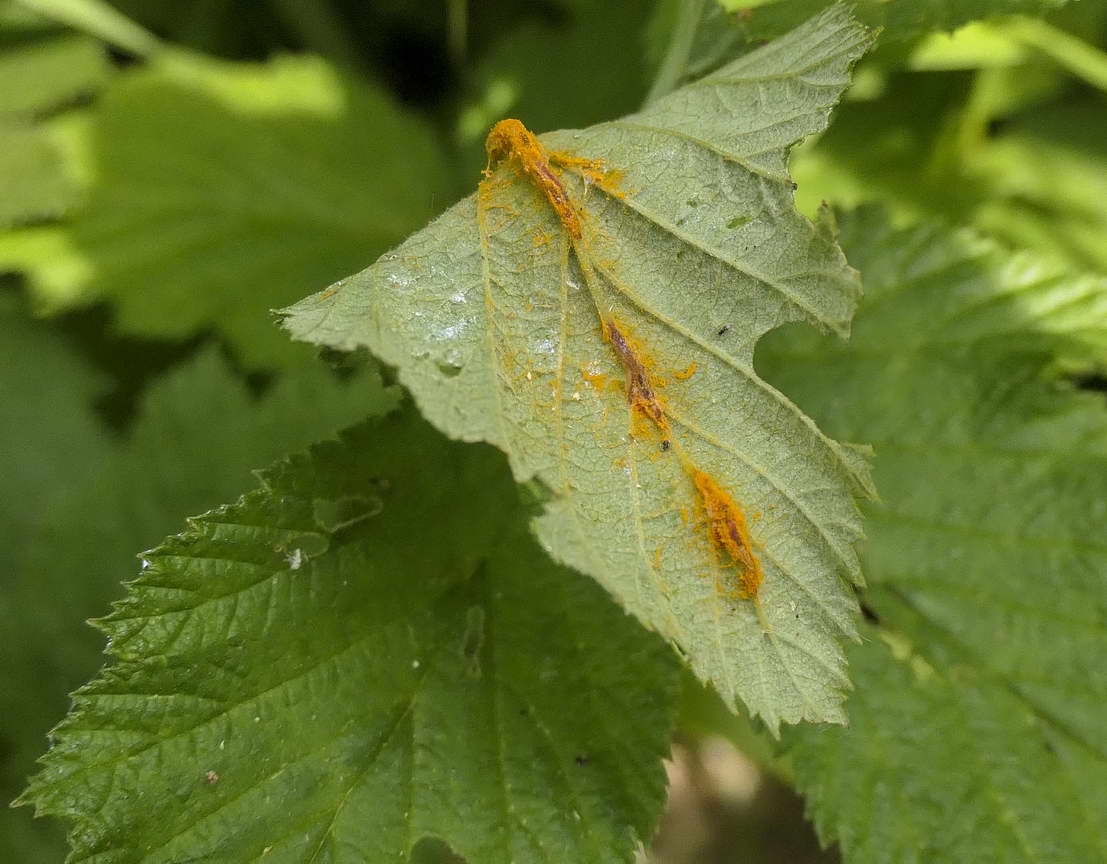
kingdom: Fungi
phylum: Basidiomycota
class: Pucciniomycetes
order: Pucciniales
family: Raveneliaceae
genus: Triphragmium
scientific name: Triphragmium ulmariae
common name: almindelig mjødurtrust
